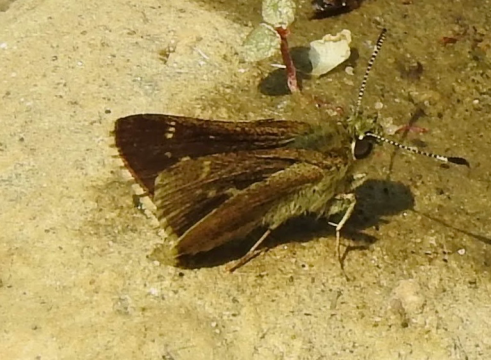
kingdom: Animalia
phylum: Arthropoda
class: Insecta
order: Lepidoptera
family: Hesperiidae
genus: Mastor
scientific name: Mastor hegon
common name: Pepper and Salt Skipper
